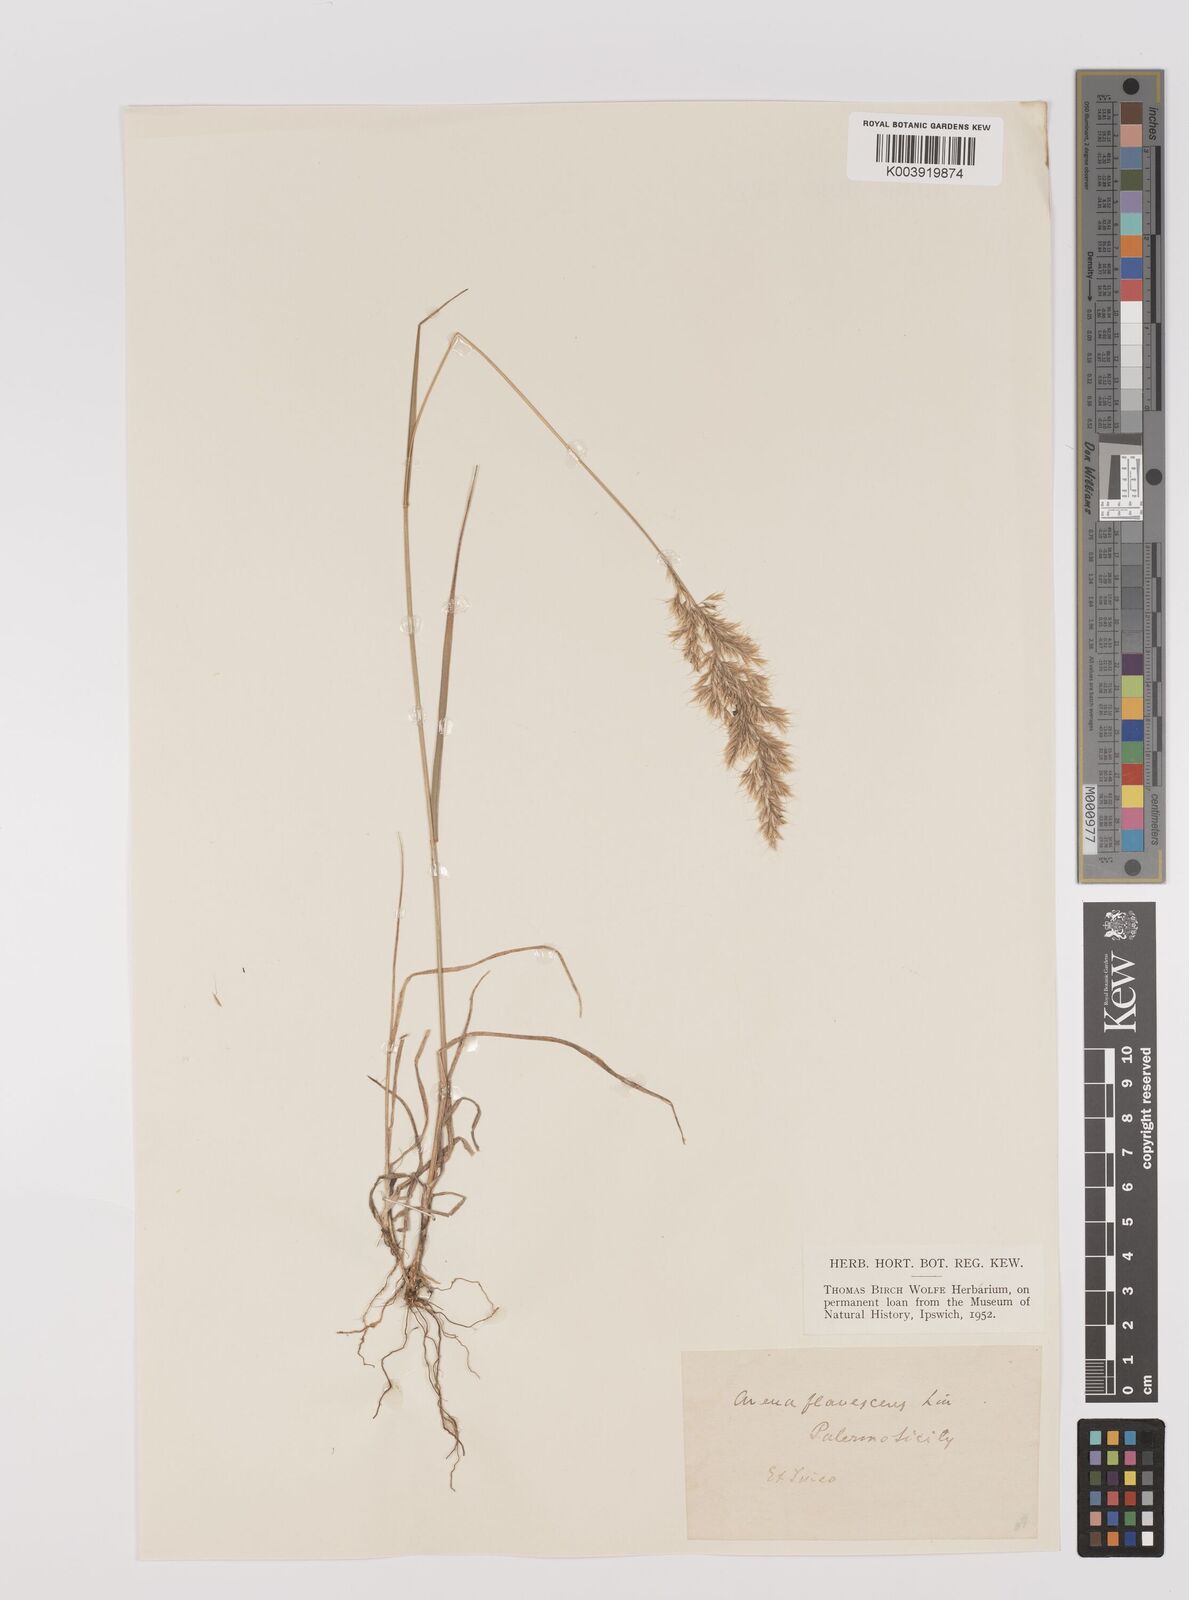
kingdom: Plantae
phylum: Tracheophyta
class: Liliopsida
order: Poales
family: Poaceae
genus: Trisetum
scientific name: Trisetum flavescens
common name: Yellow oat-grass
